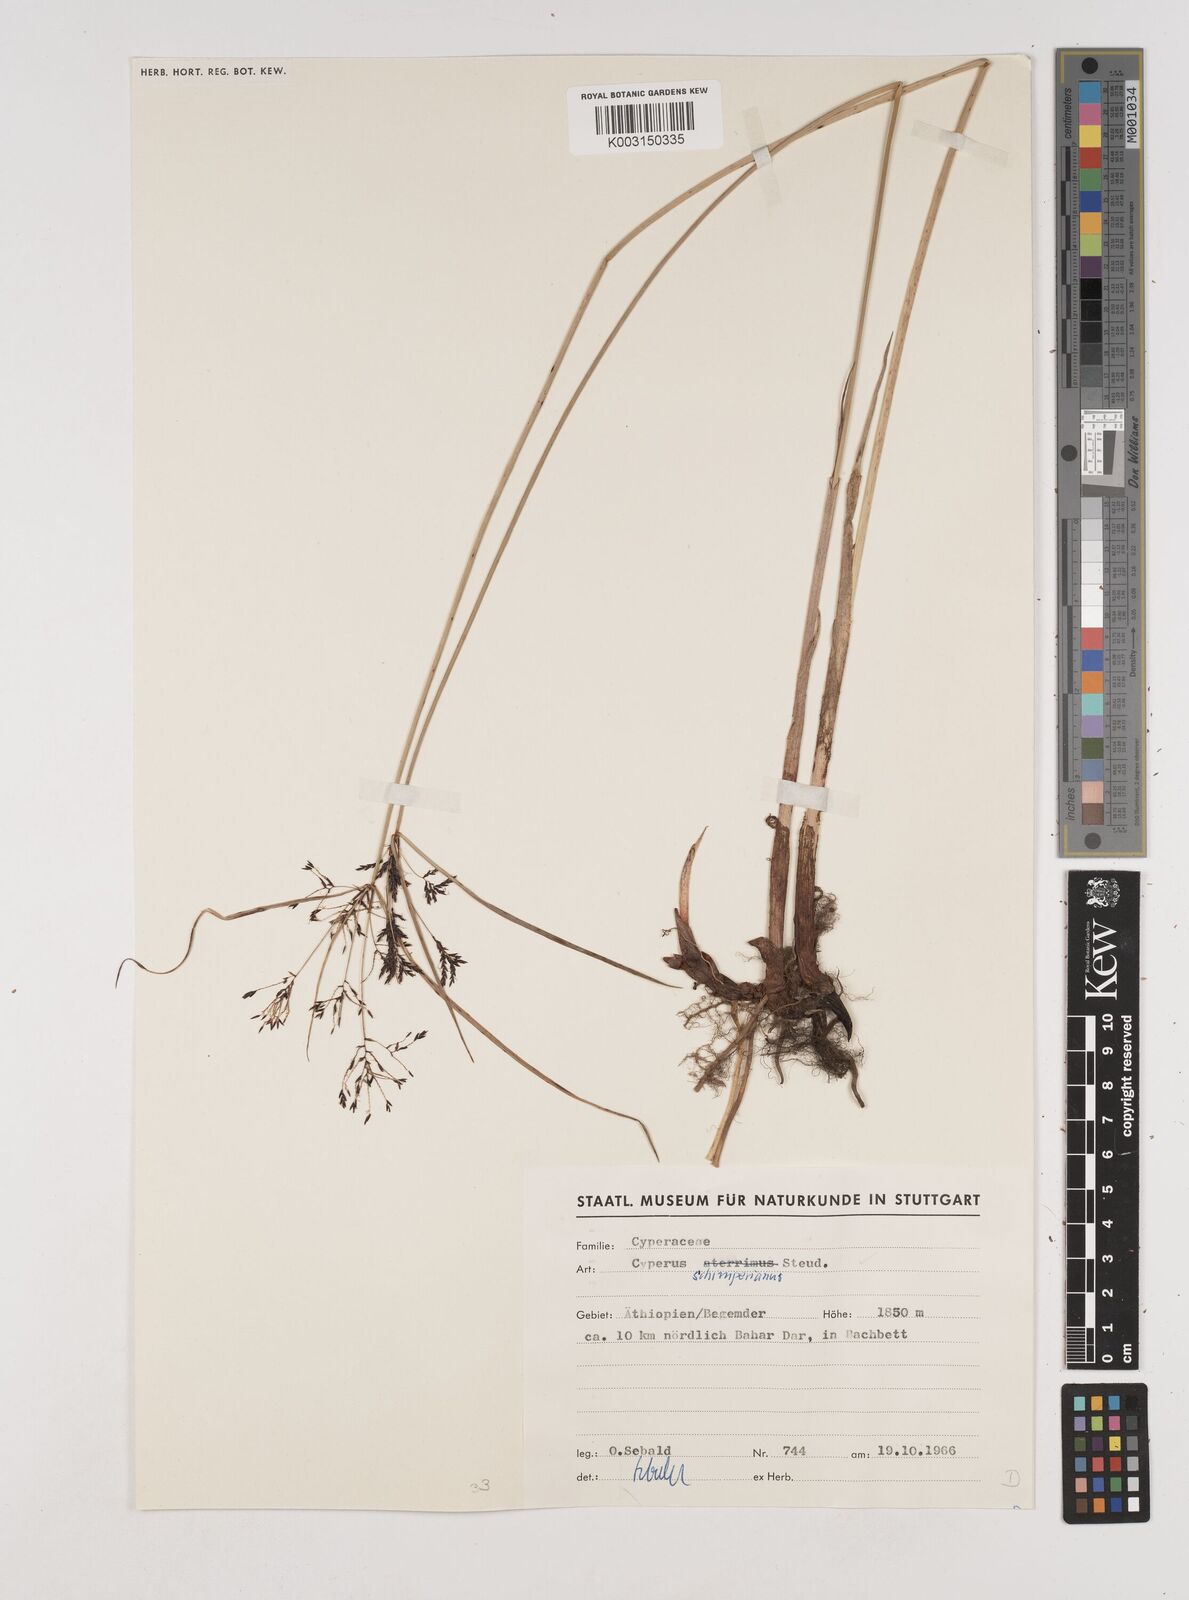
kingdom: Plantae
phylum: Tracheophyta
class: Liliopsida
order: Poales
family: Cyperaceae
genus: Cyperus
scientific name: Cyperus schimperianus
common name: Schimper flatsedge
